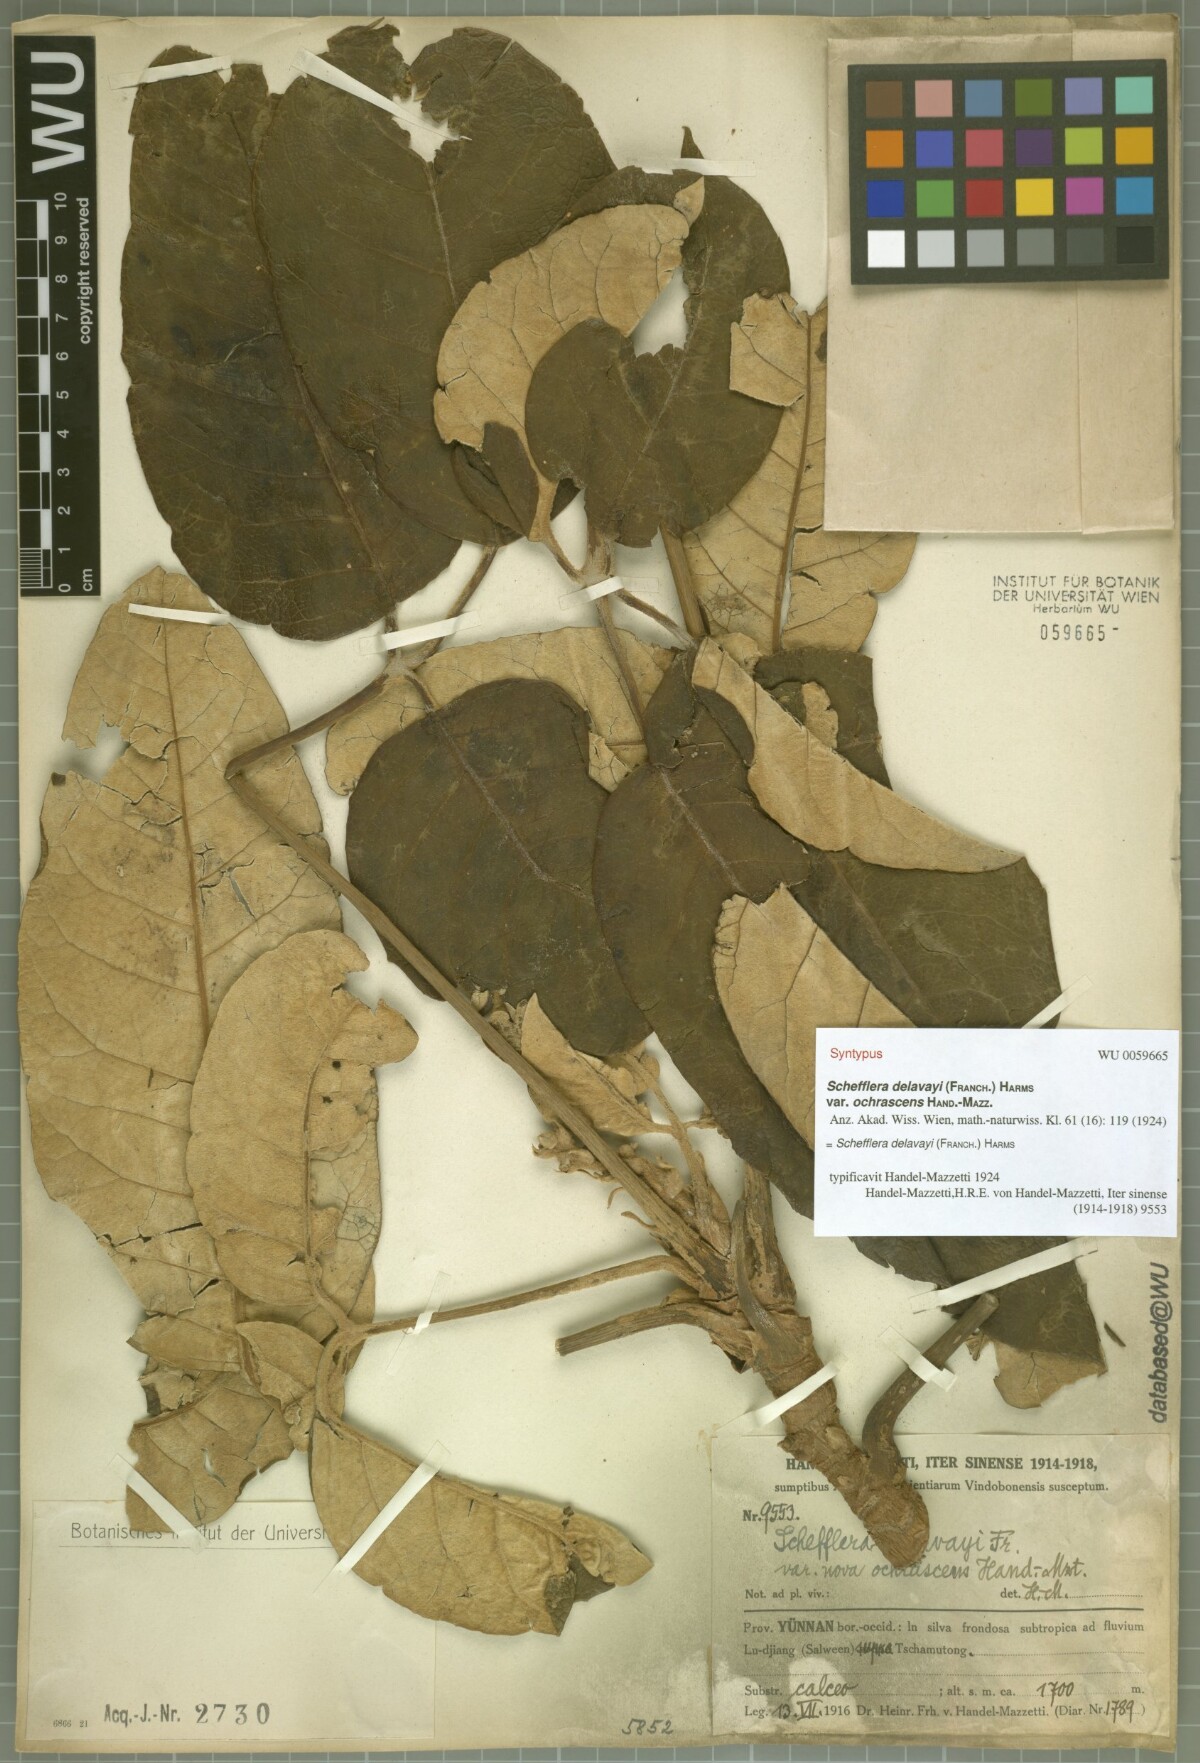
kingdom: Plantae
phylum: Tracheophyta
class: Magnoliopsida
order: Apiales
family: Araliaceae
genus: Heptapleurum
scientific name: Heptapleurum delavayi
